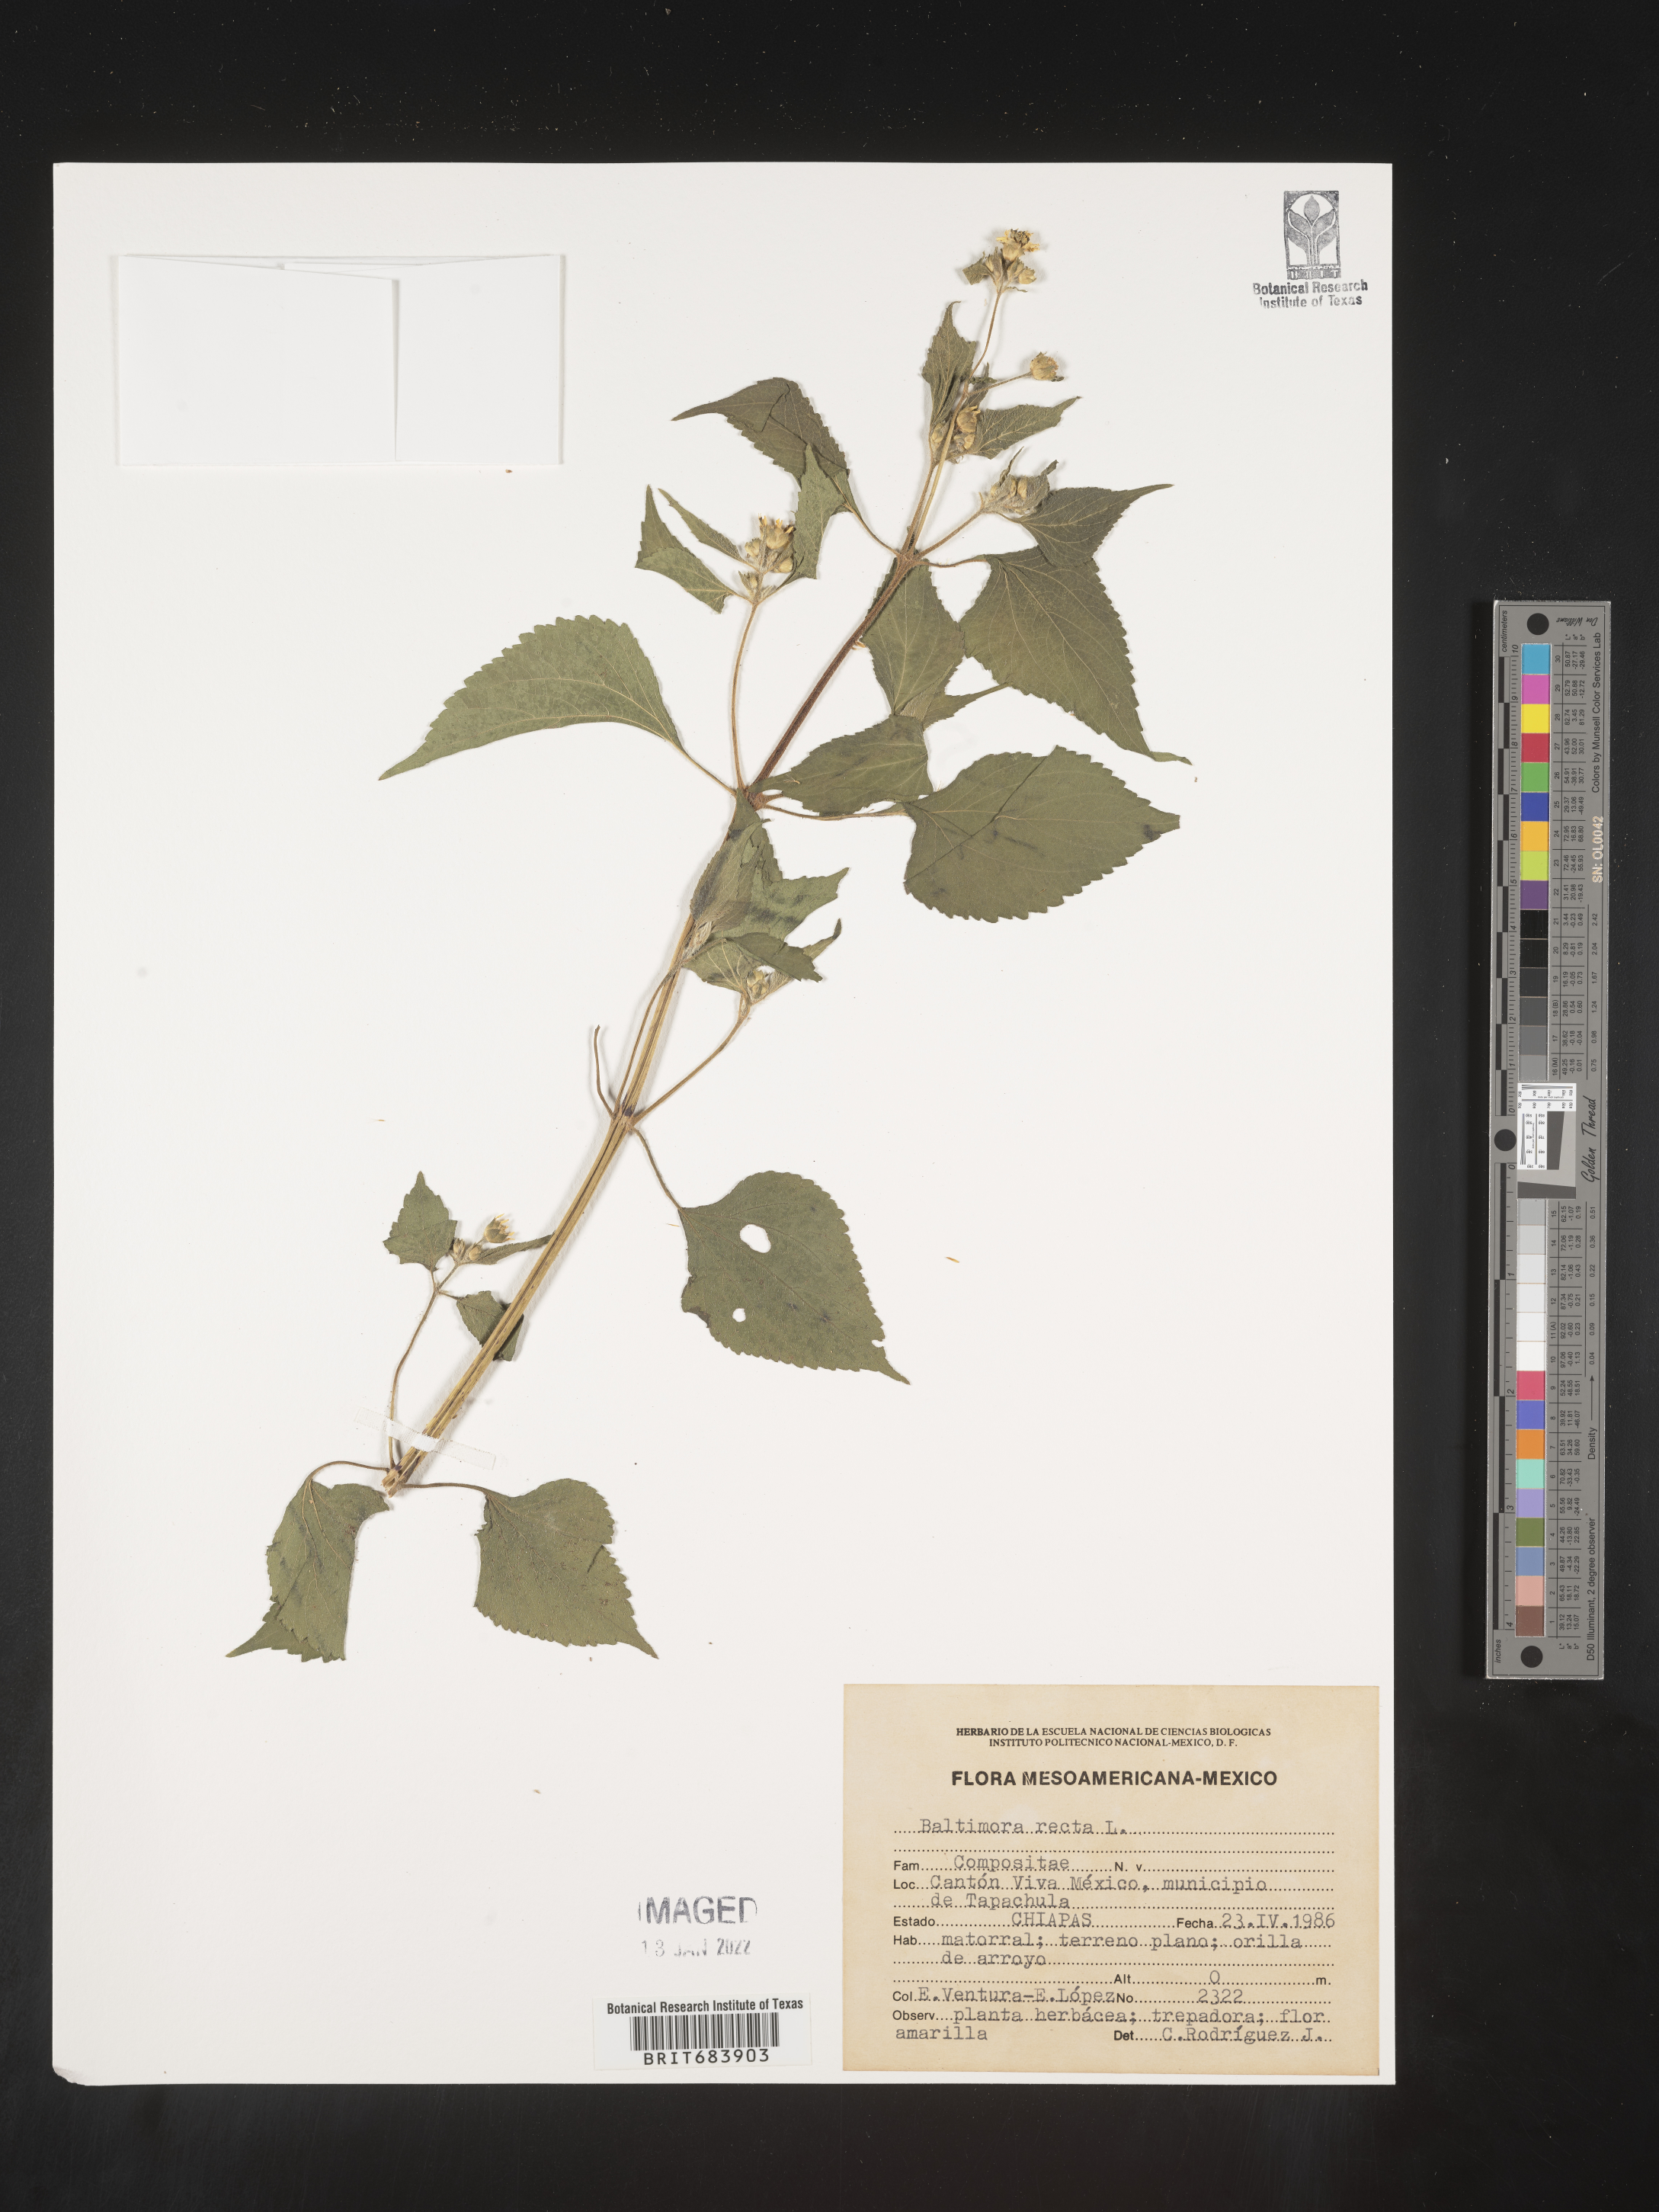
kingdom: Plantae
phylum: Tracheophyta
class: Magnoliopsida
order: Asterales
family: Asteraceae
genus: Baltimora
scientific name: Baltimora
